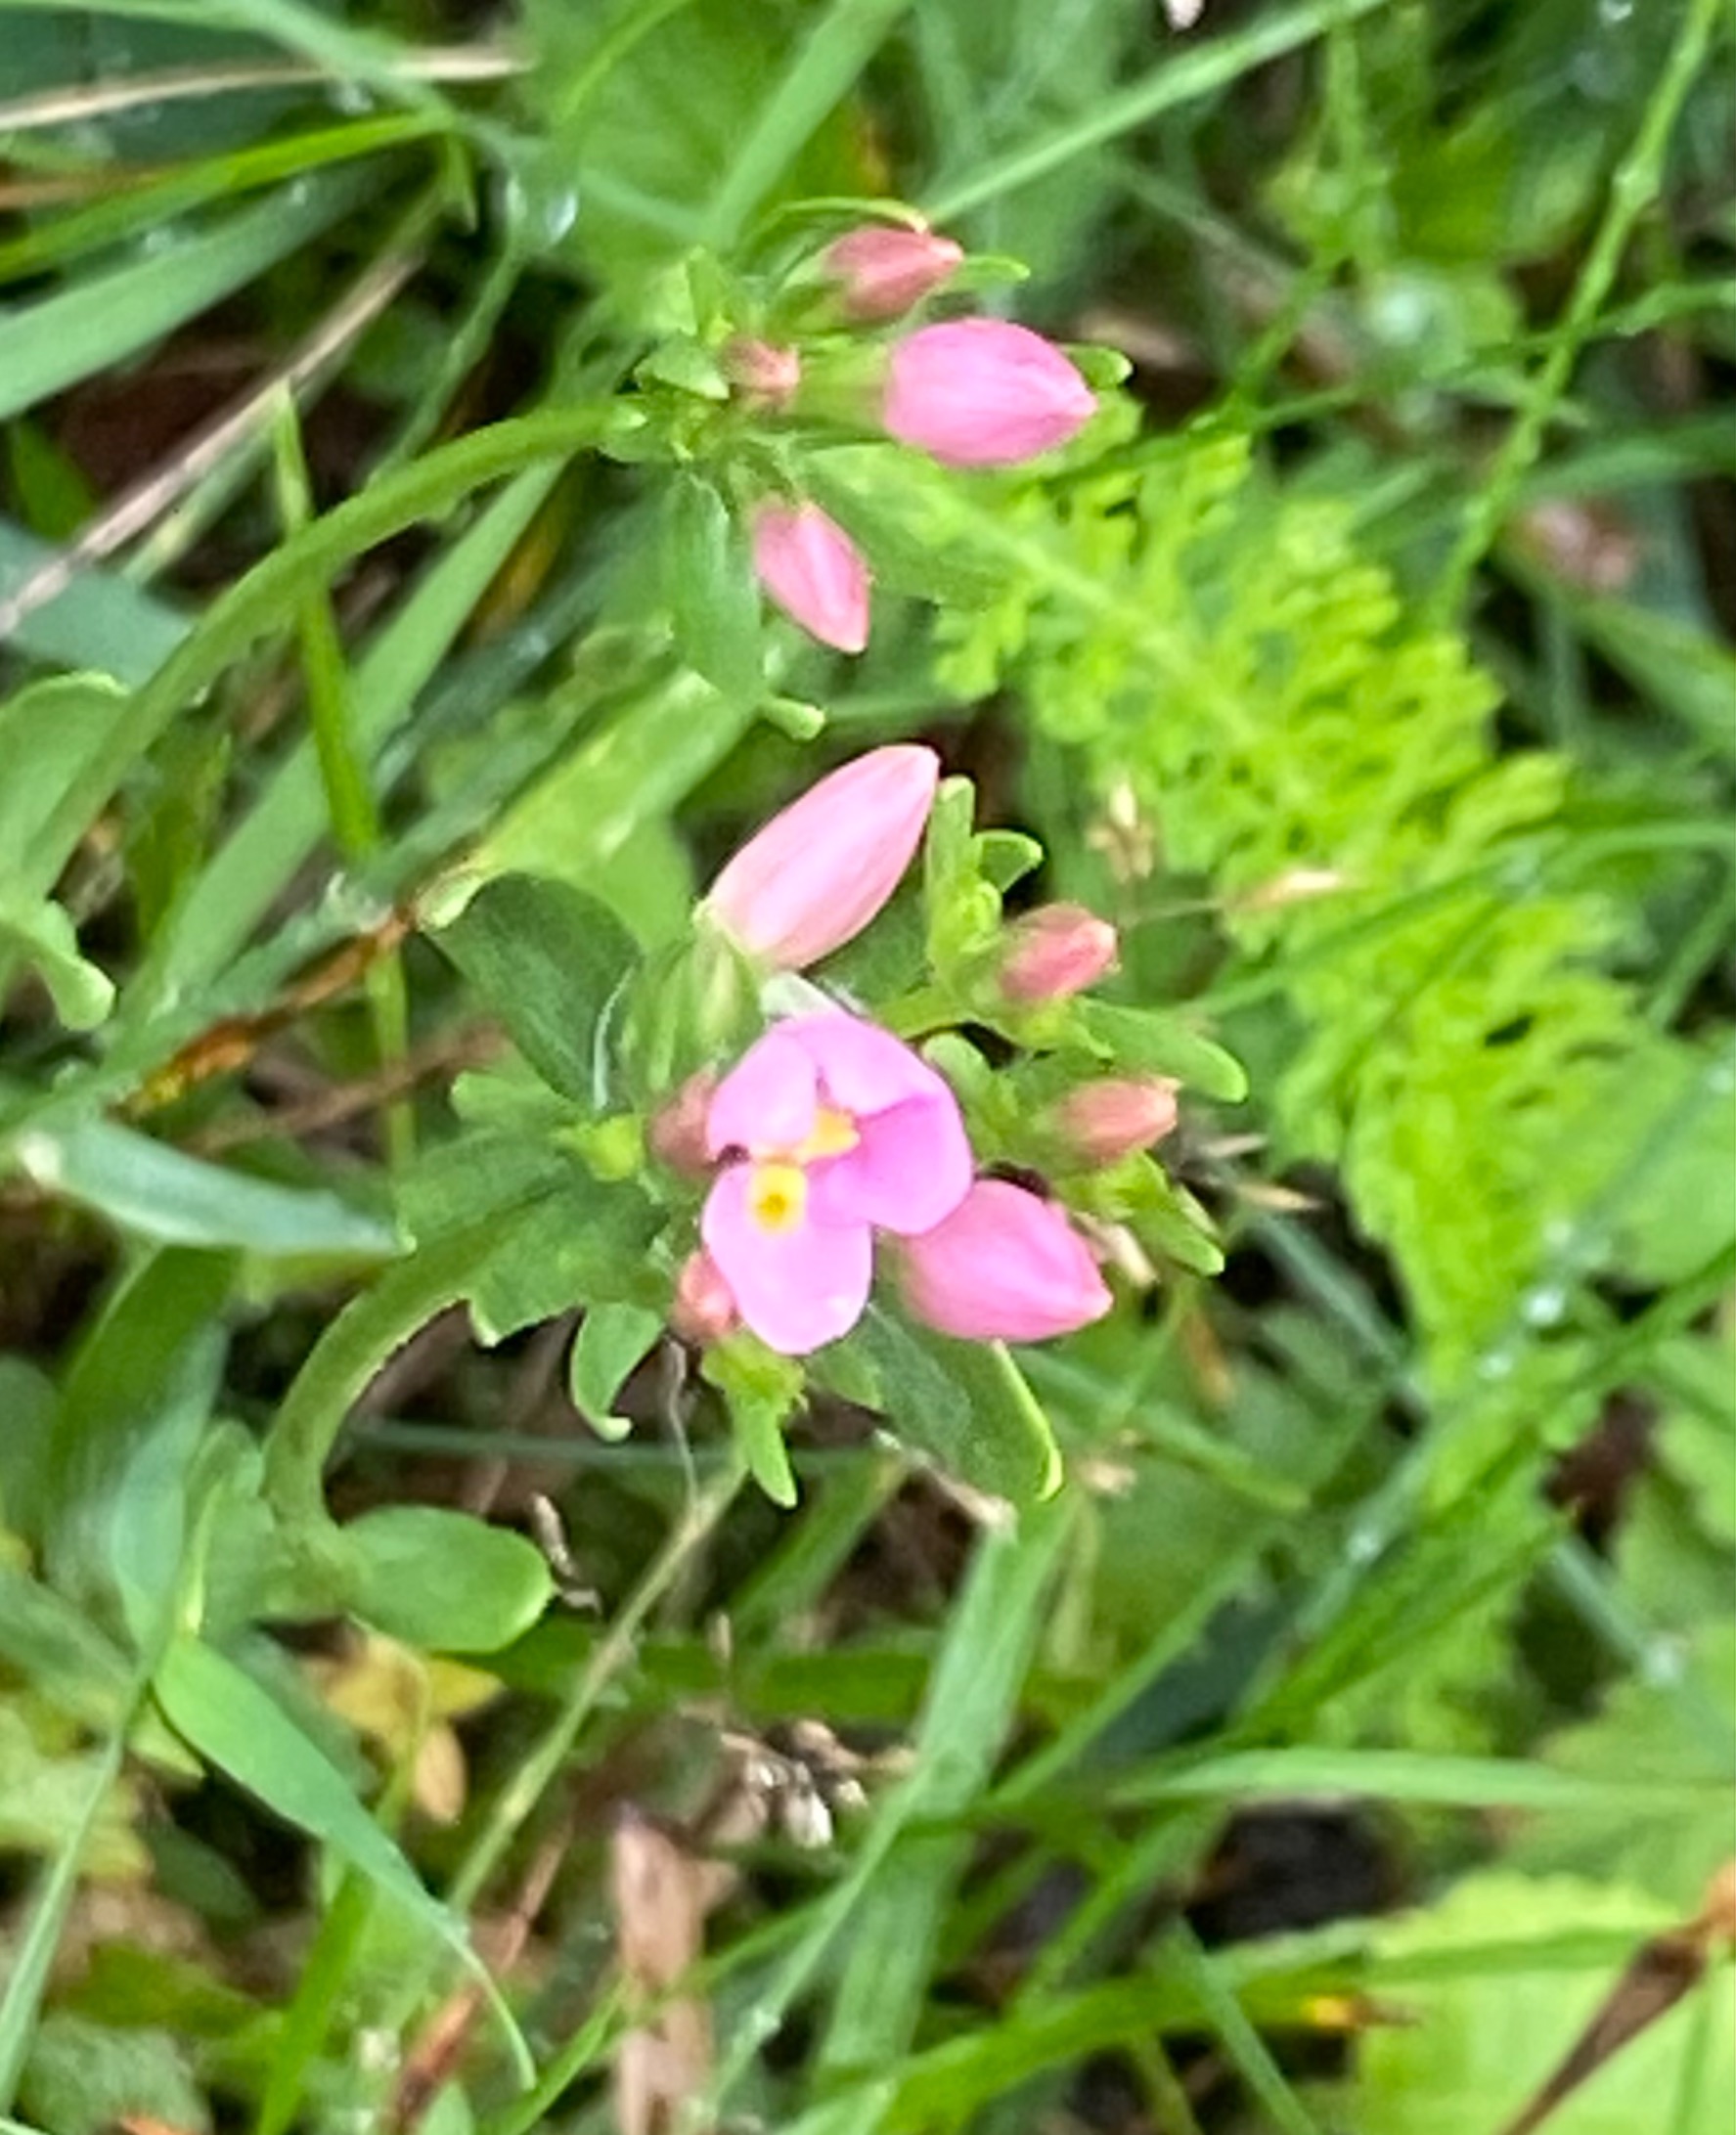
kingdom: Plantae
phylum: Tracheophyta
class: Magnoliopsida
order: Gentianales
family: Gentianaceae
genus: Centaurium
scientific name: Centaurium erythraea
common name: Mark-tusindgylden
